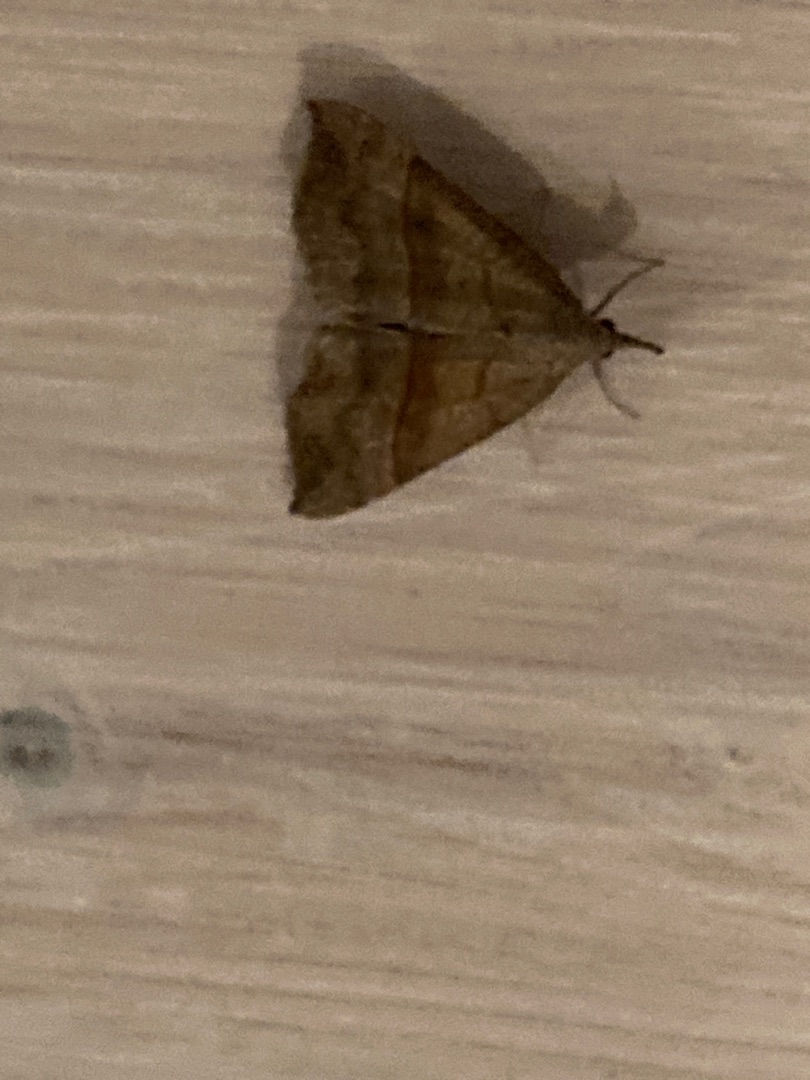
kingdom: Animalia
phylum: Arthropoda
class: Insecta
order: Lepidoptera
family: Erebidae
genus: Hypena
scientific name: Hypena proboscidalis
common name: Snudeugle
